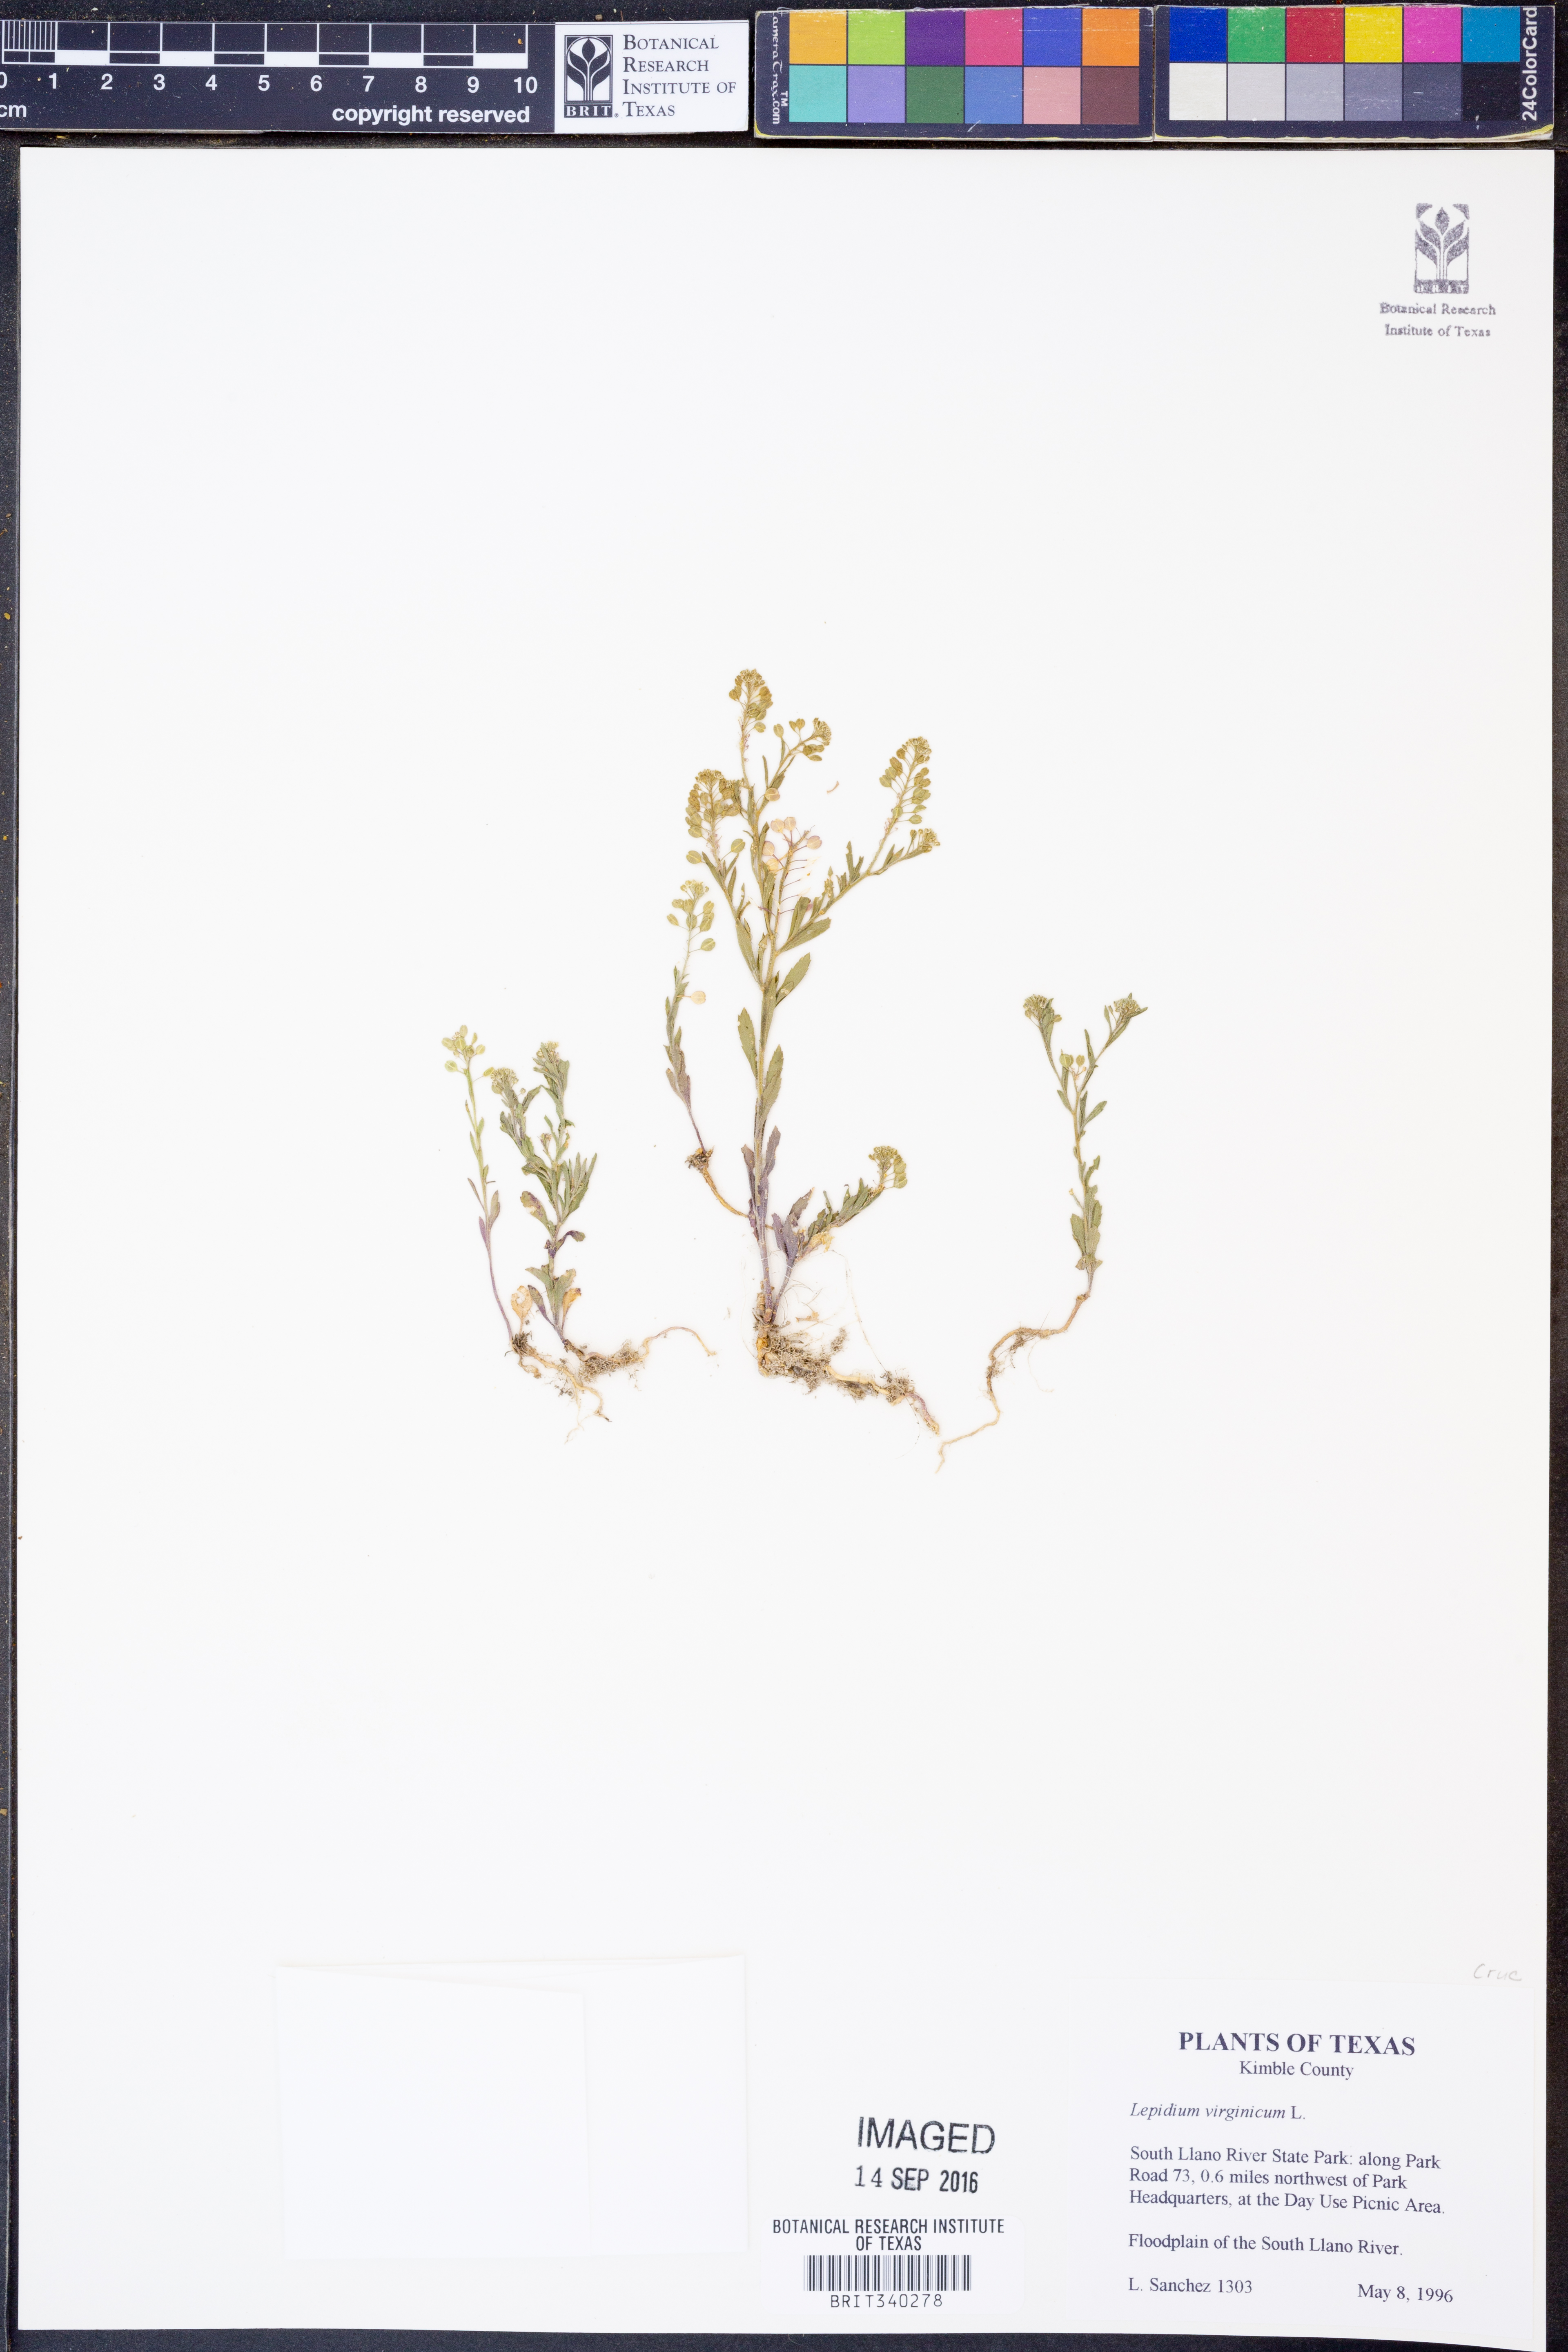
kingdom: Plantae
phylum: Tracheophyta
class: Magnoliopsida
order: Brassicales
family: Brassicaceae
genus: Lepidium
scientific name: Lepidium virginicum
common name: Least pepperwort
